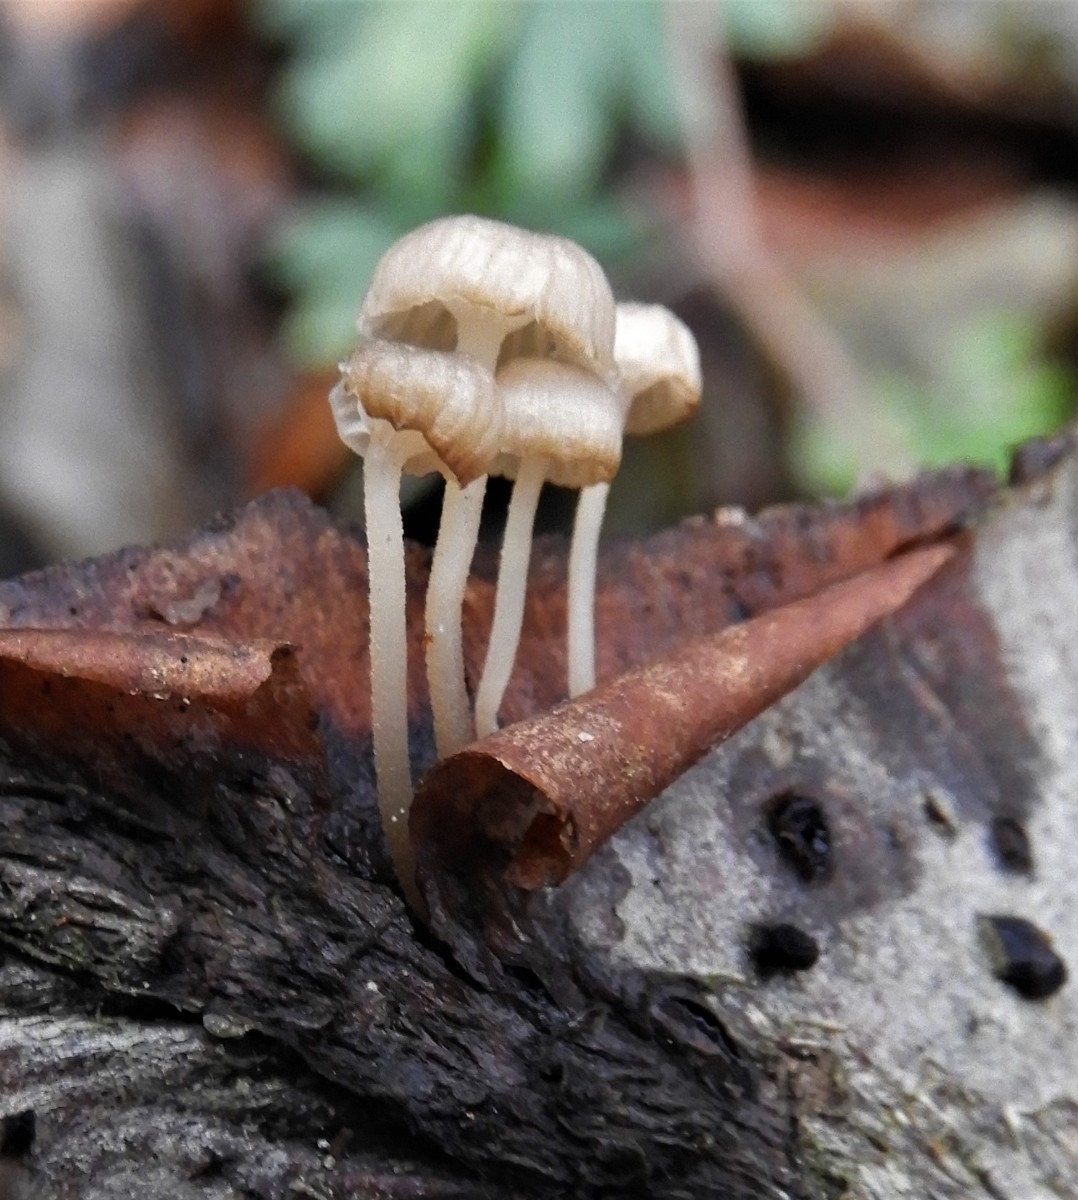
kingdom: Fungi
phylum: Basidiomycota
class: Agaricomycetes
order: Agaricales
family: Porotheleaceae
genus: Phloeomana
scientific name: Phloeomana speirea
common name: kvist-huesvamp
